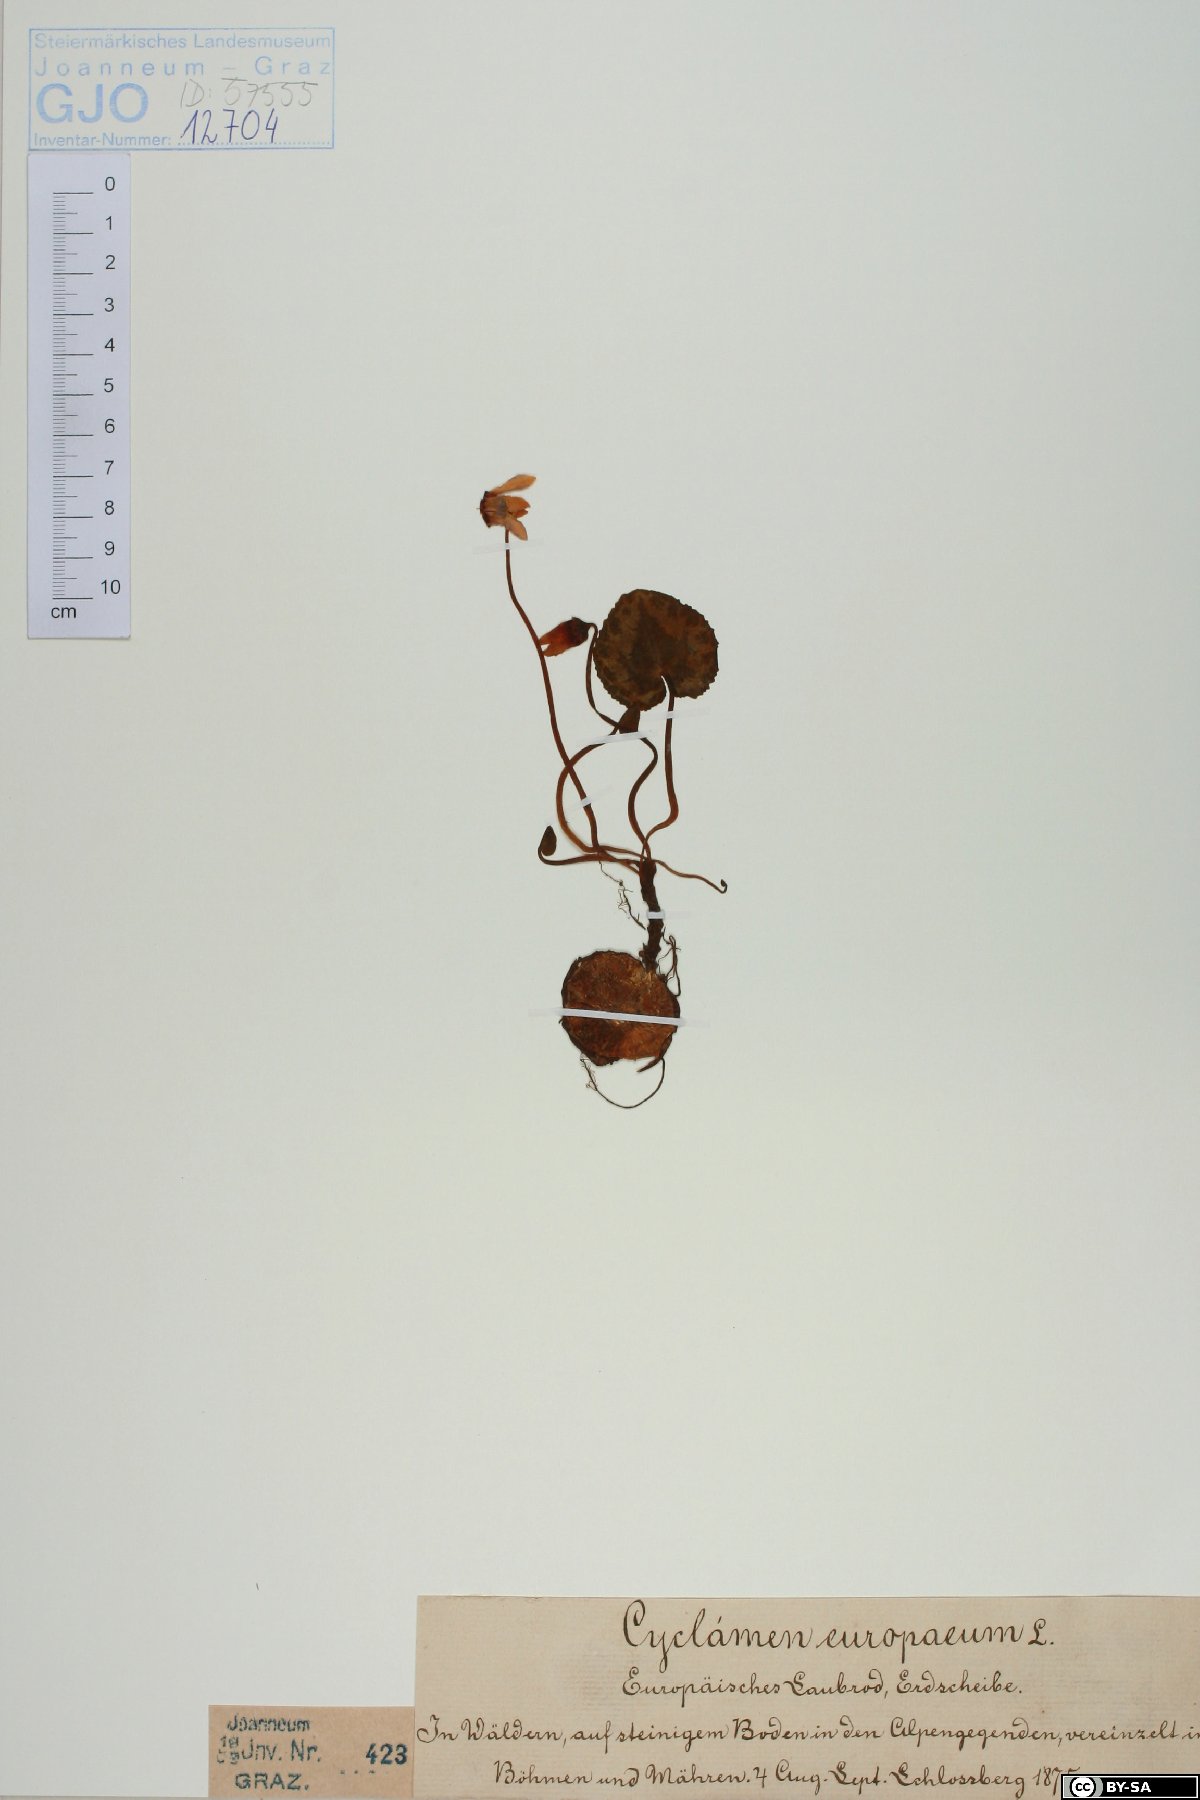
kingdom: Plantae
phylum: Tracheophyta
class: Magnoliopsida
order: Ericales
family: Primulaceae
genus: Cyclamen
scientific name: Cyclamen purpurascens
